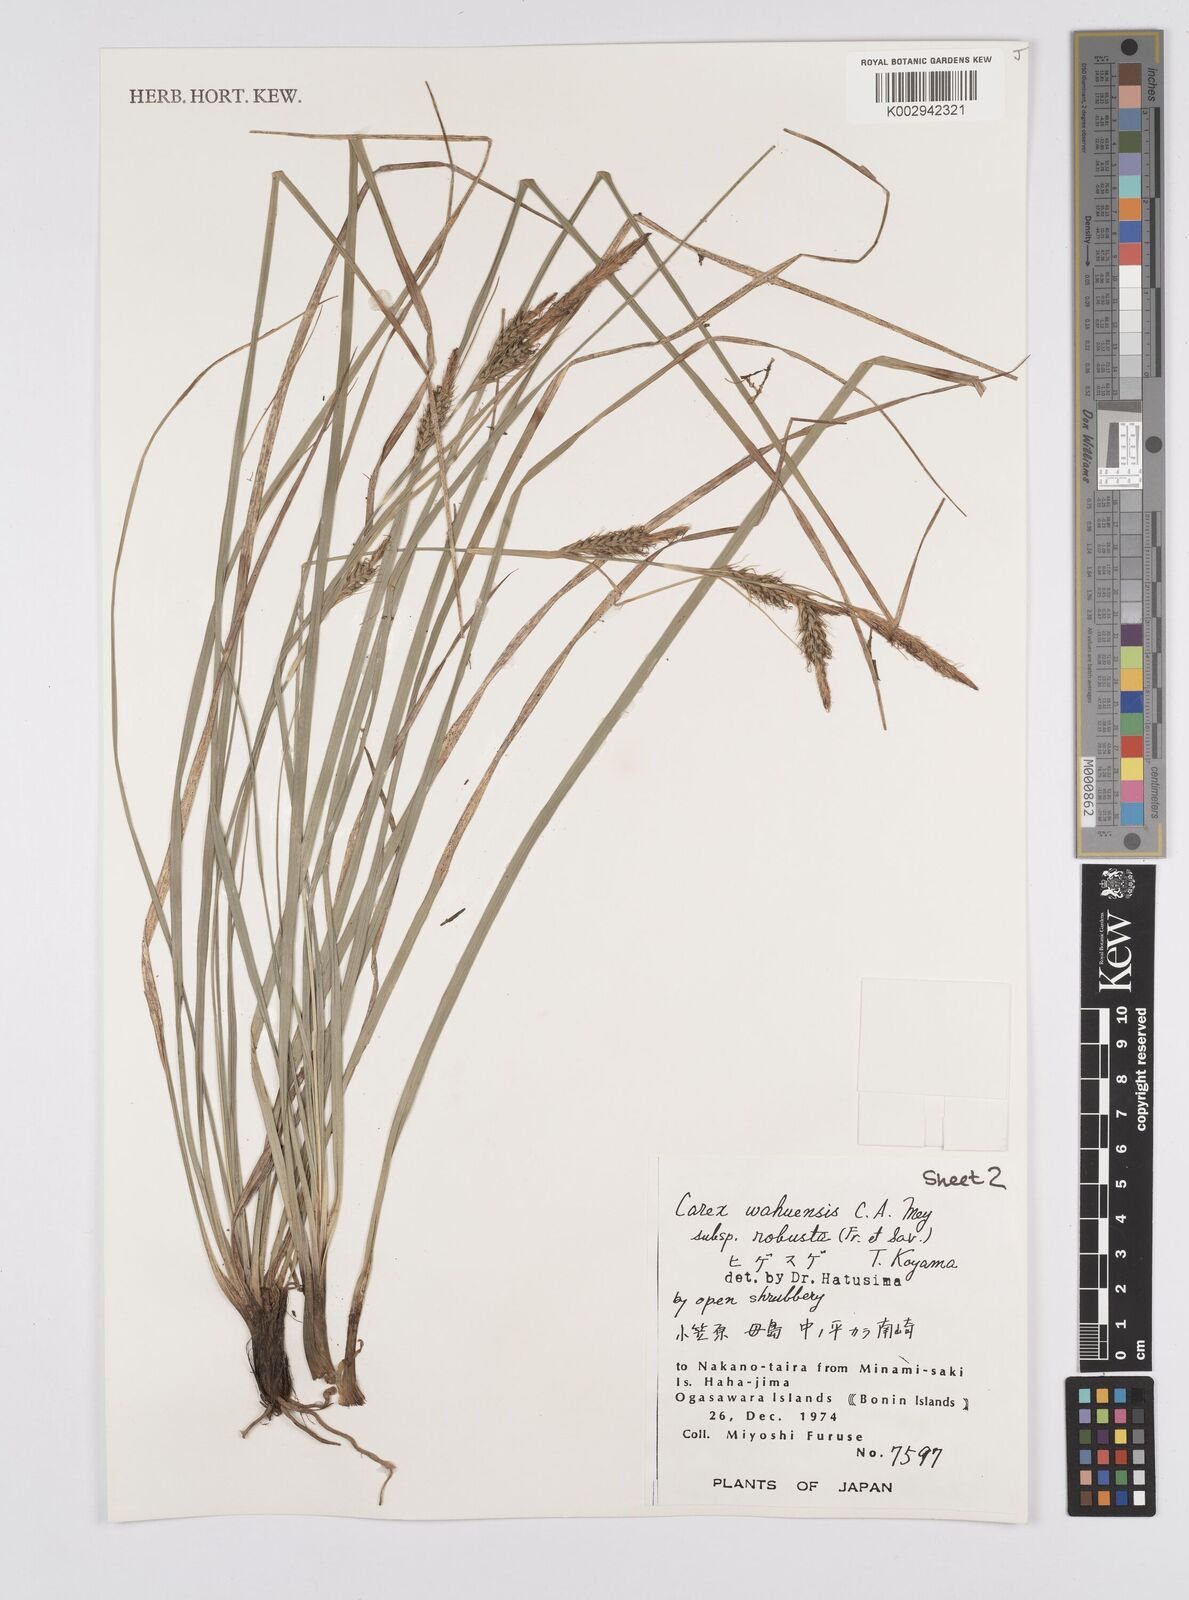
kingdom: Plantae
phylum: Tracheophyta
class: Liliopsida
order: Poales
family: Cyperaceae
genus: Carex
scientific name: Carex wahuensis
